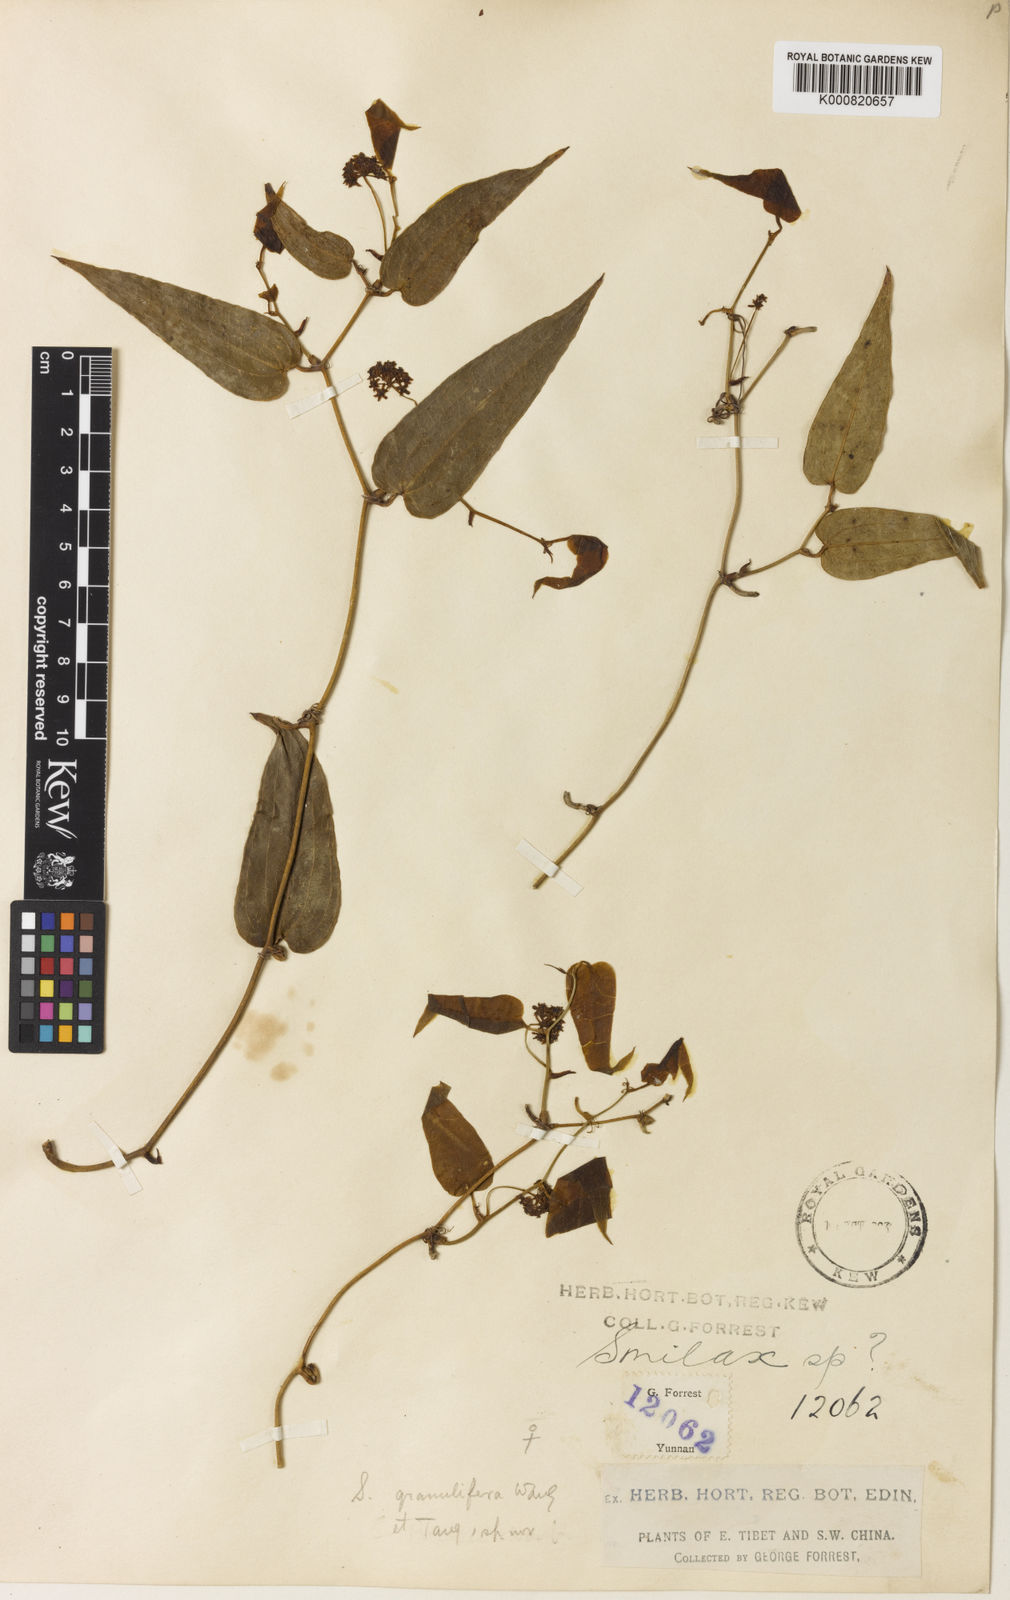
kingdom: Plantae
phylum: Tracheophyta
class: Liliopsida
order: Liliales
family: Smilacaceae
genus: Smilax
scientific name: Smilax
